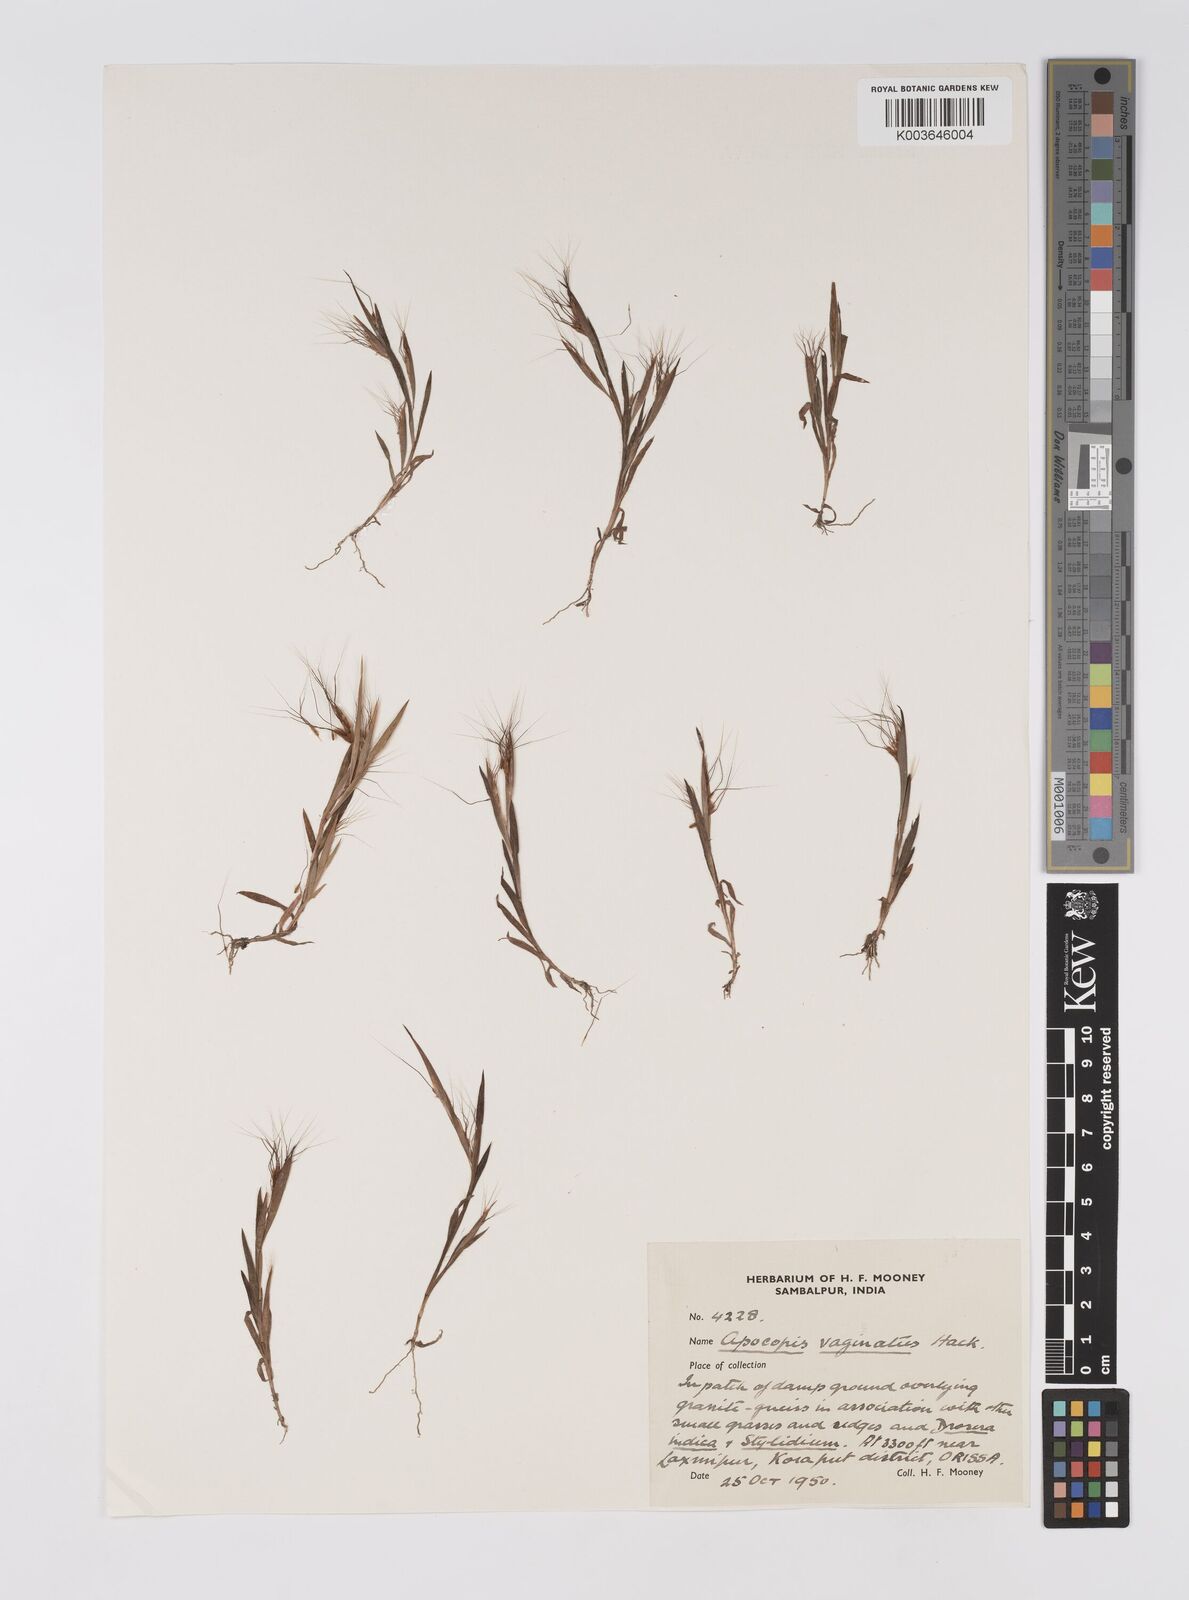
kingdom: Plantae
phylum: Tracheophyta
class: Liliopsida
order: Poales
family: Poaceae
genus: Apocopis
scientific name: Apocopis vaginatus
